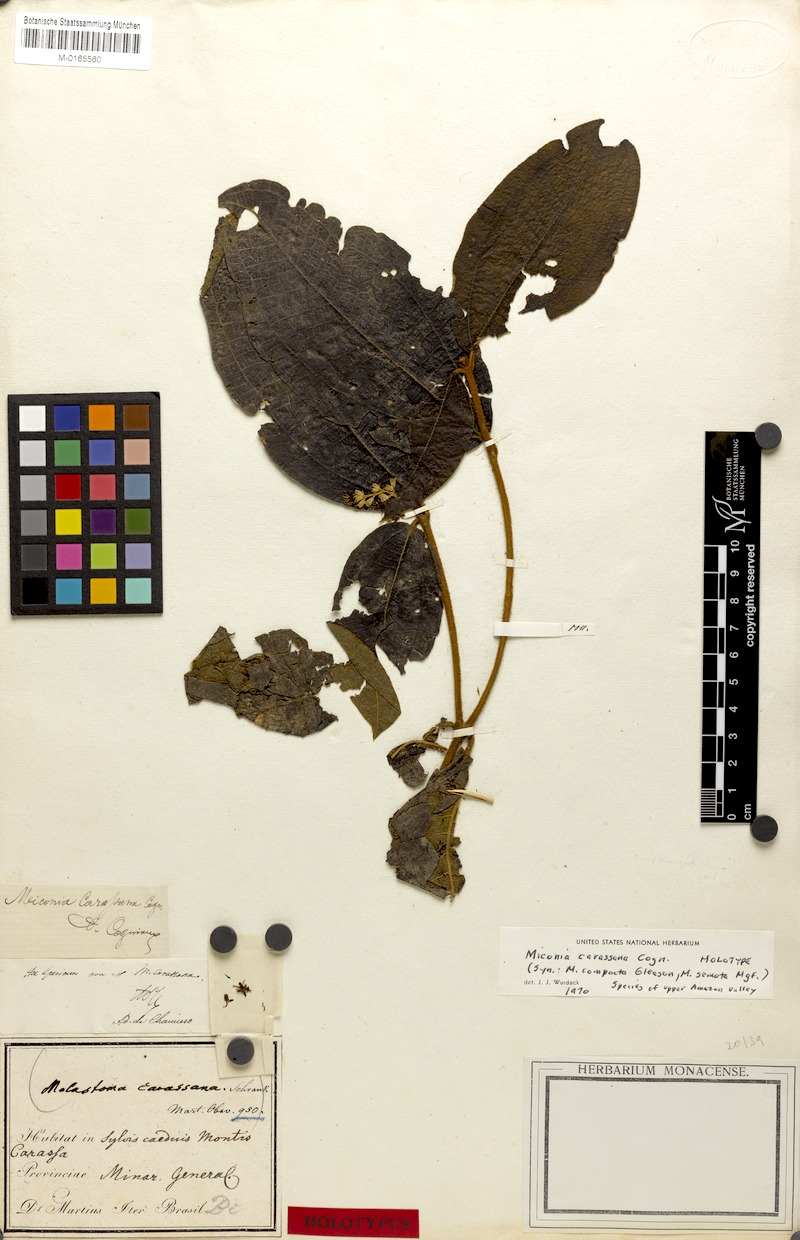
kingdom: Plantae
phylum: Tracheophyta
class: Magnoliopsida
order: Myrtales
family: Melastomataceae
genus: Miconia
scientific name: Miconia carassana
